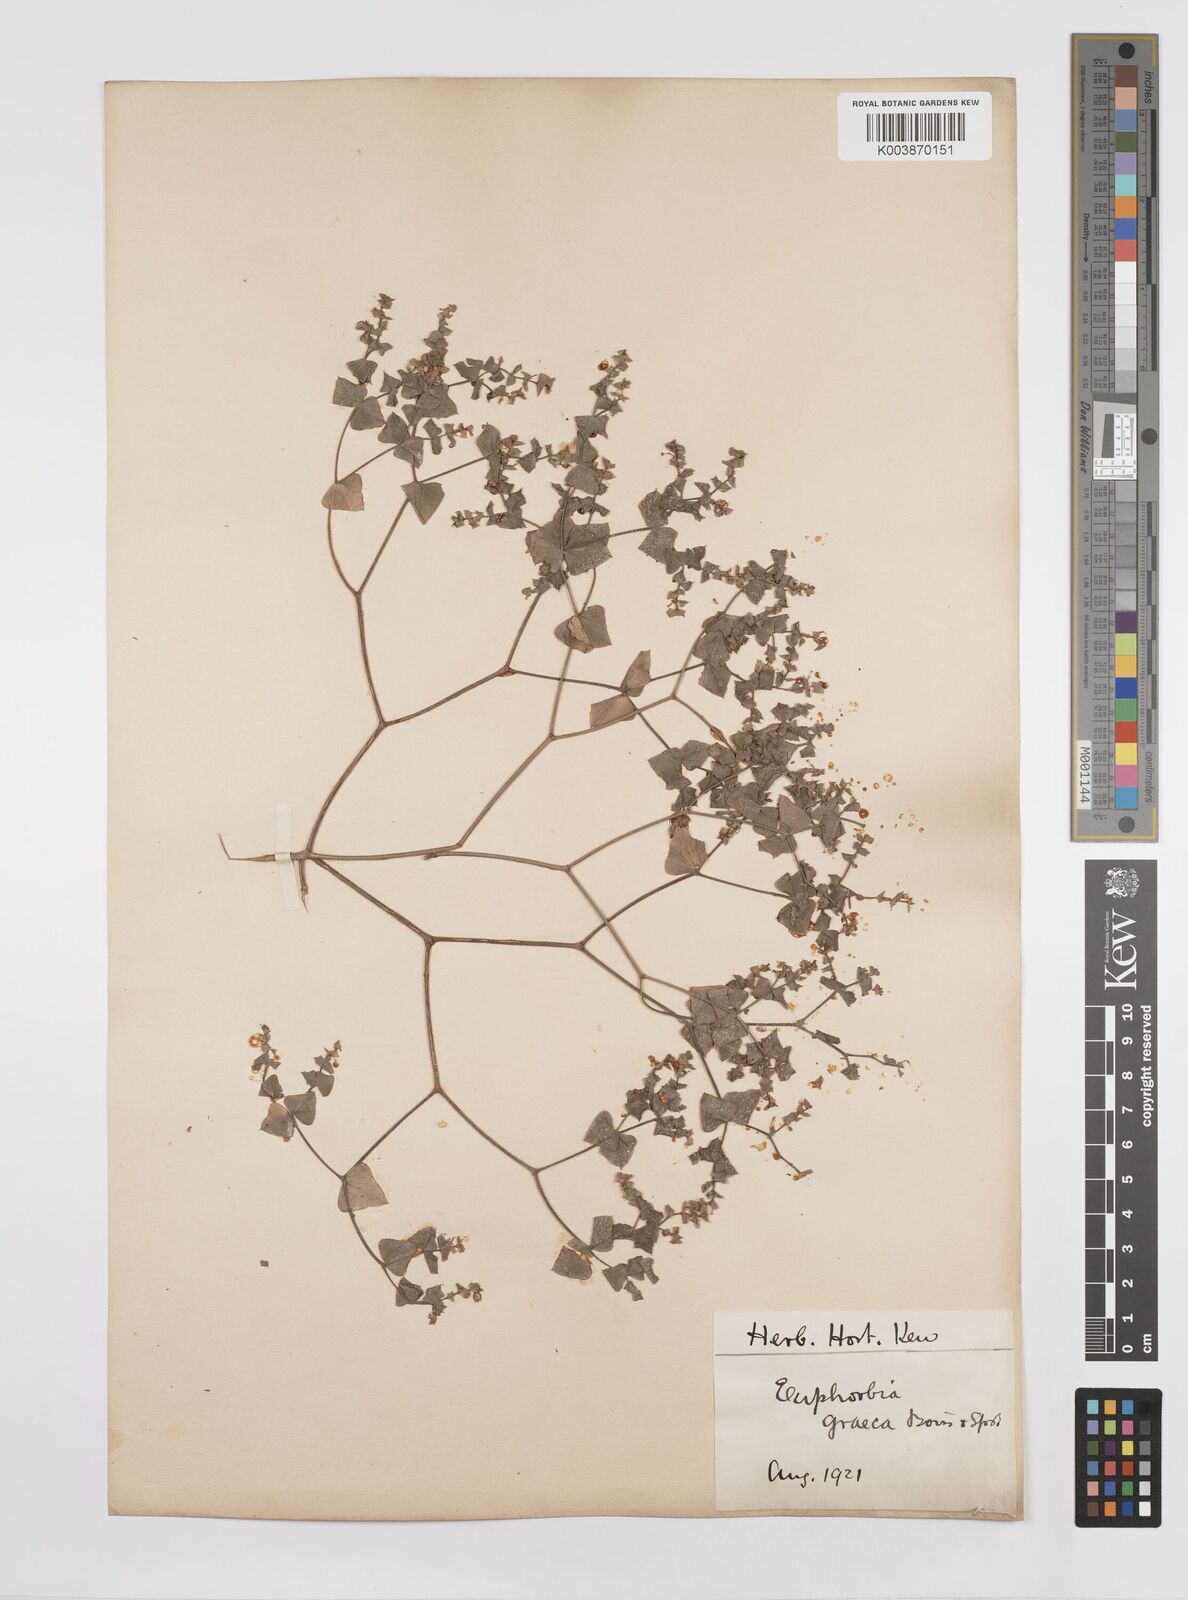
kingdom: Plantae
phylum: Tracheophyta
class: Magnoliopsida
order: Malpighiales
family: Euphorbiaceae
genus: Euphorbia
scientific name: Euphorbia taurinensis
